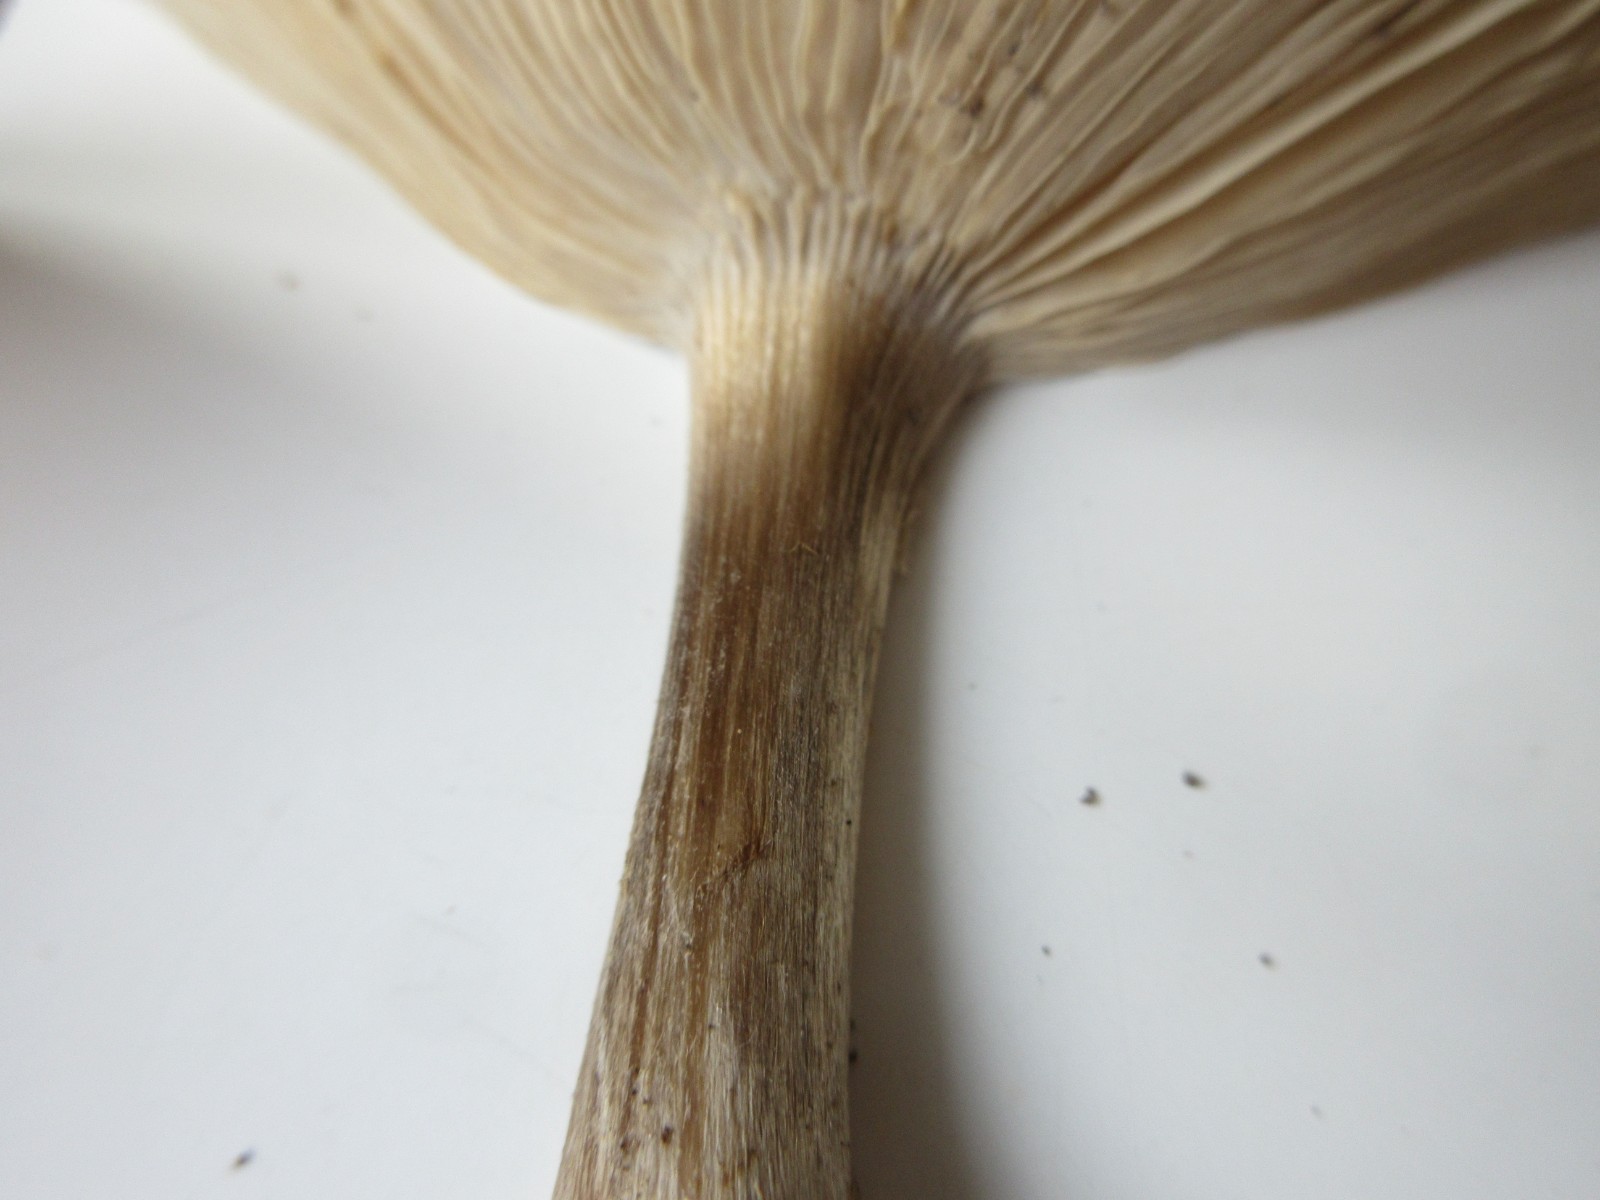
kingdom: Fungi
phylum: Basidiomycota
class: Agaricomycetes
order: Agaricales
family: Tricholomataceae
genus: Melanoleuca
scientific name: Melanoleuca
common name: munkehat
